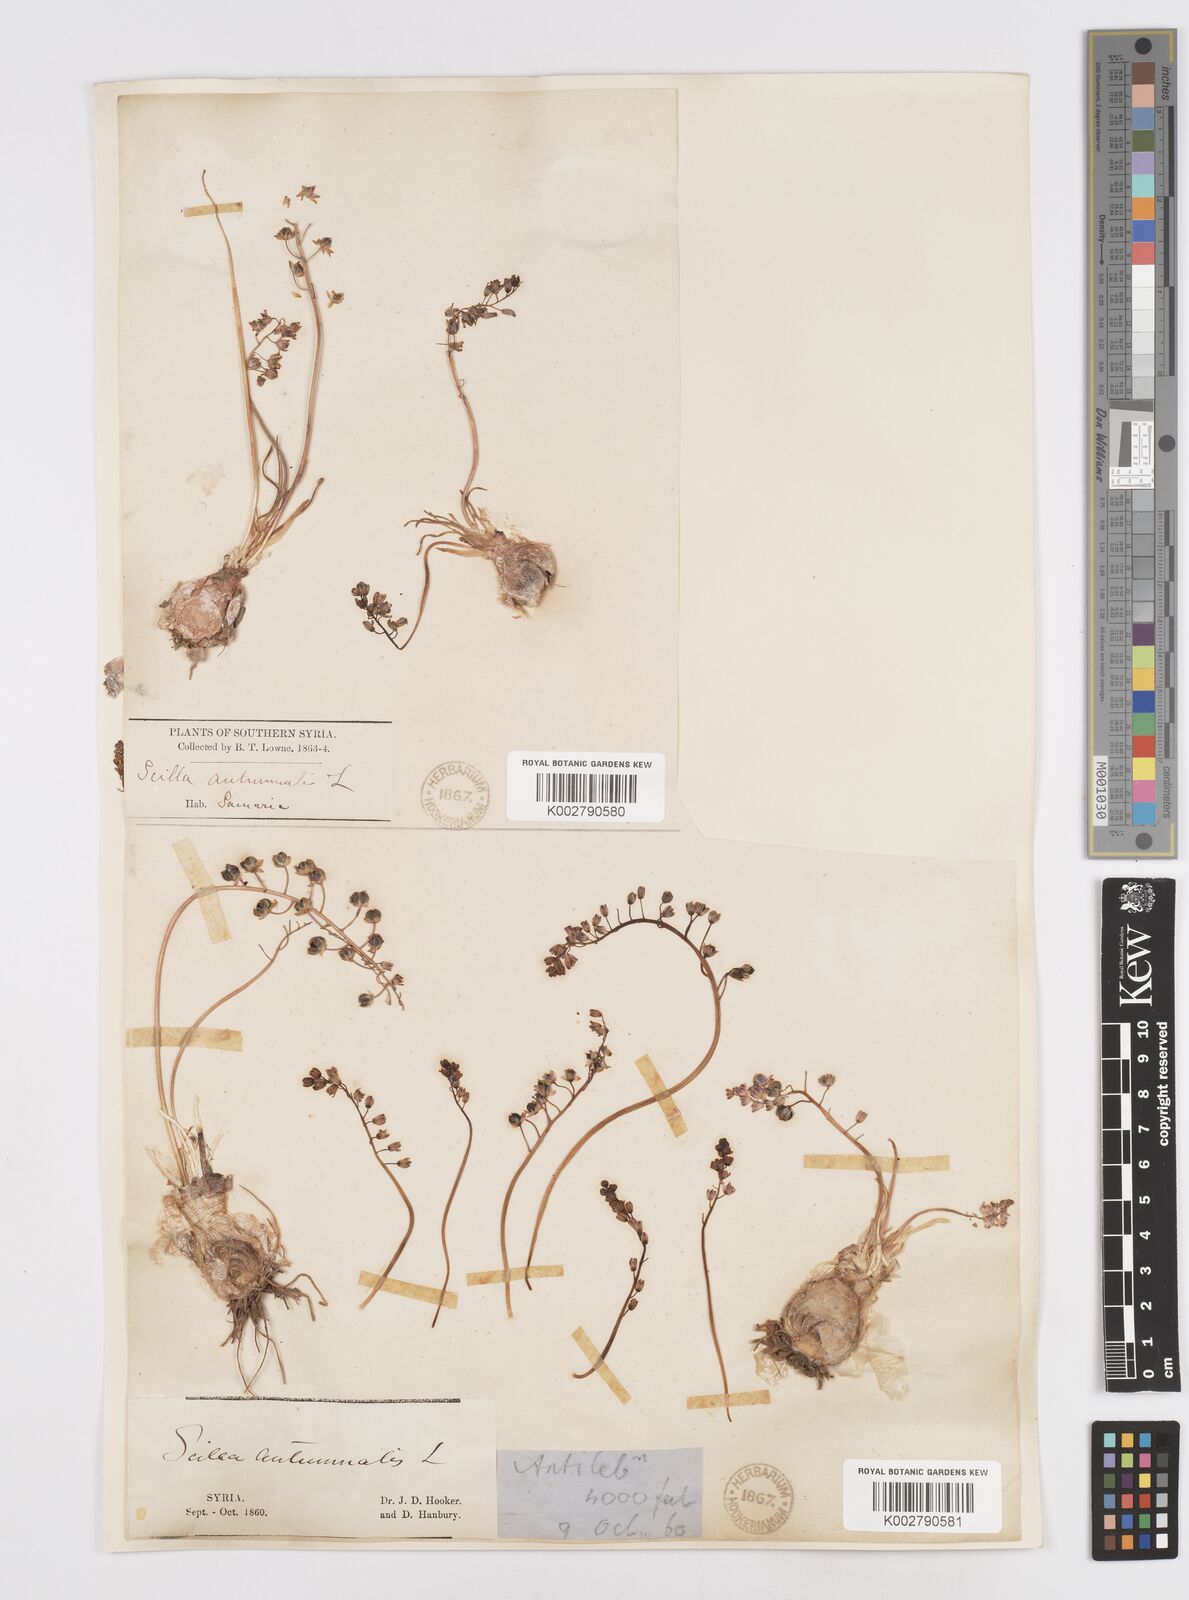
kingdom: Plantae
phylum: Tracheophyta
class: Liliopsida
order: Asparagales
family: Asparagaceae
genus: Prospero
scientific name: Prospero autumnale
